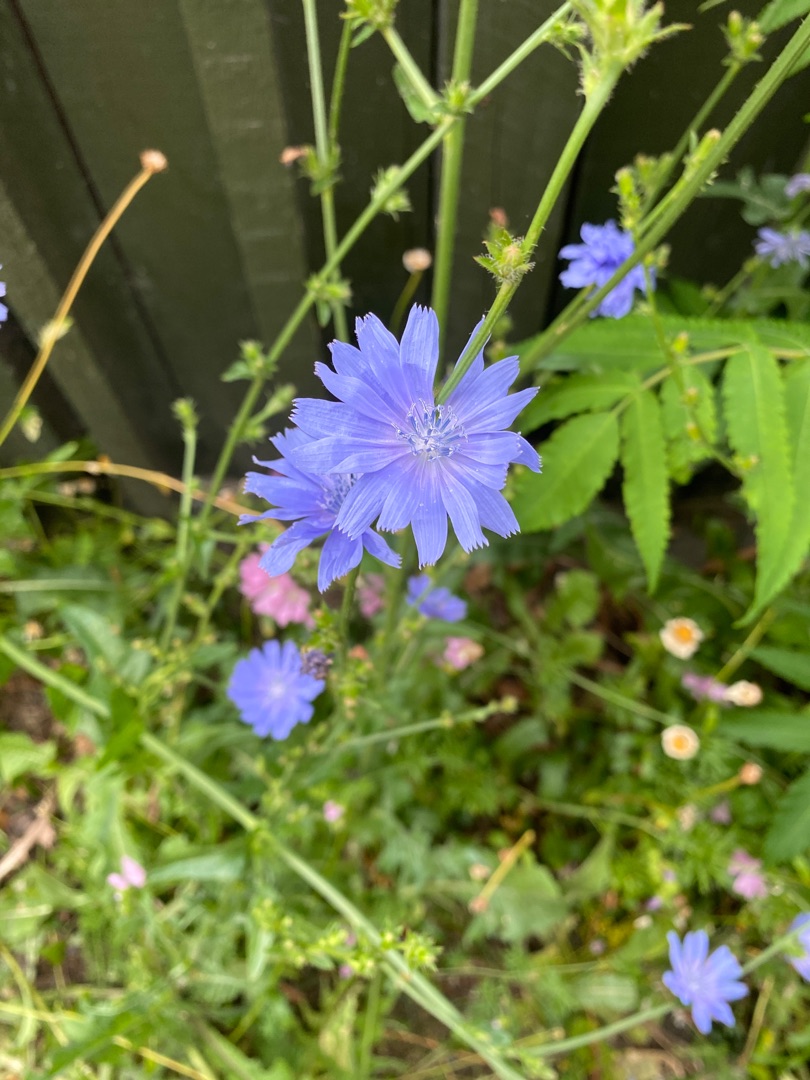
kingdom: Plantae
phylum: Tracheophyta
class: Magnoliopsida
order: Asterales
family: Asteraceae
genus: Cichorium
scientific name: Cichorium intybus
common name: Cikorie
